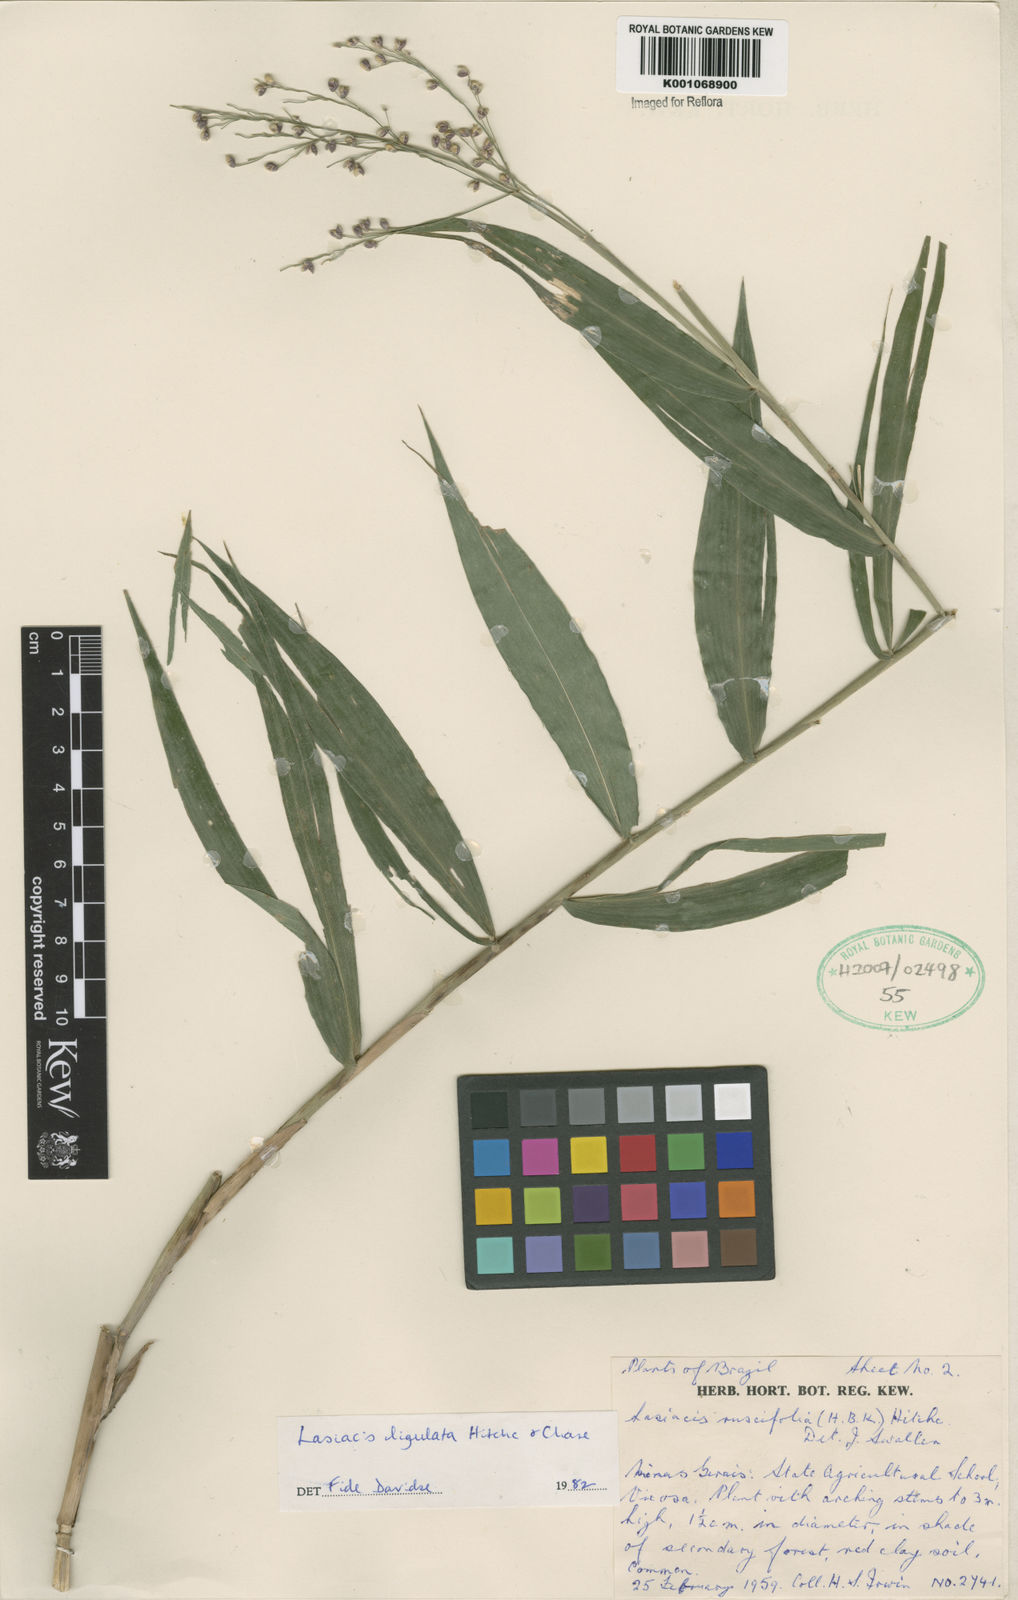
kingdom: Plantae
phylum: Tracheophyta
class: Liliopsida
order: Poales
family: Poaceae
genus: Lasiacis
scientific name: Lasiacis ligulata
